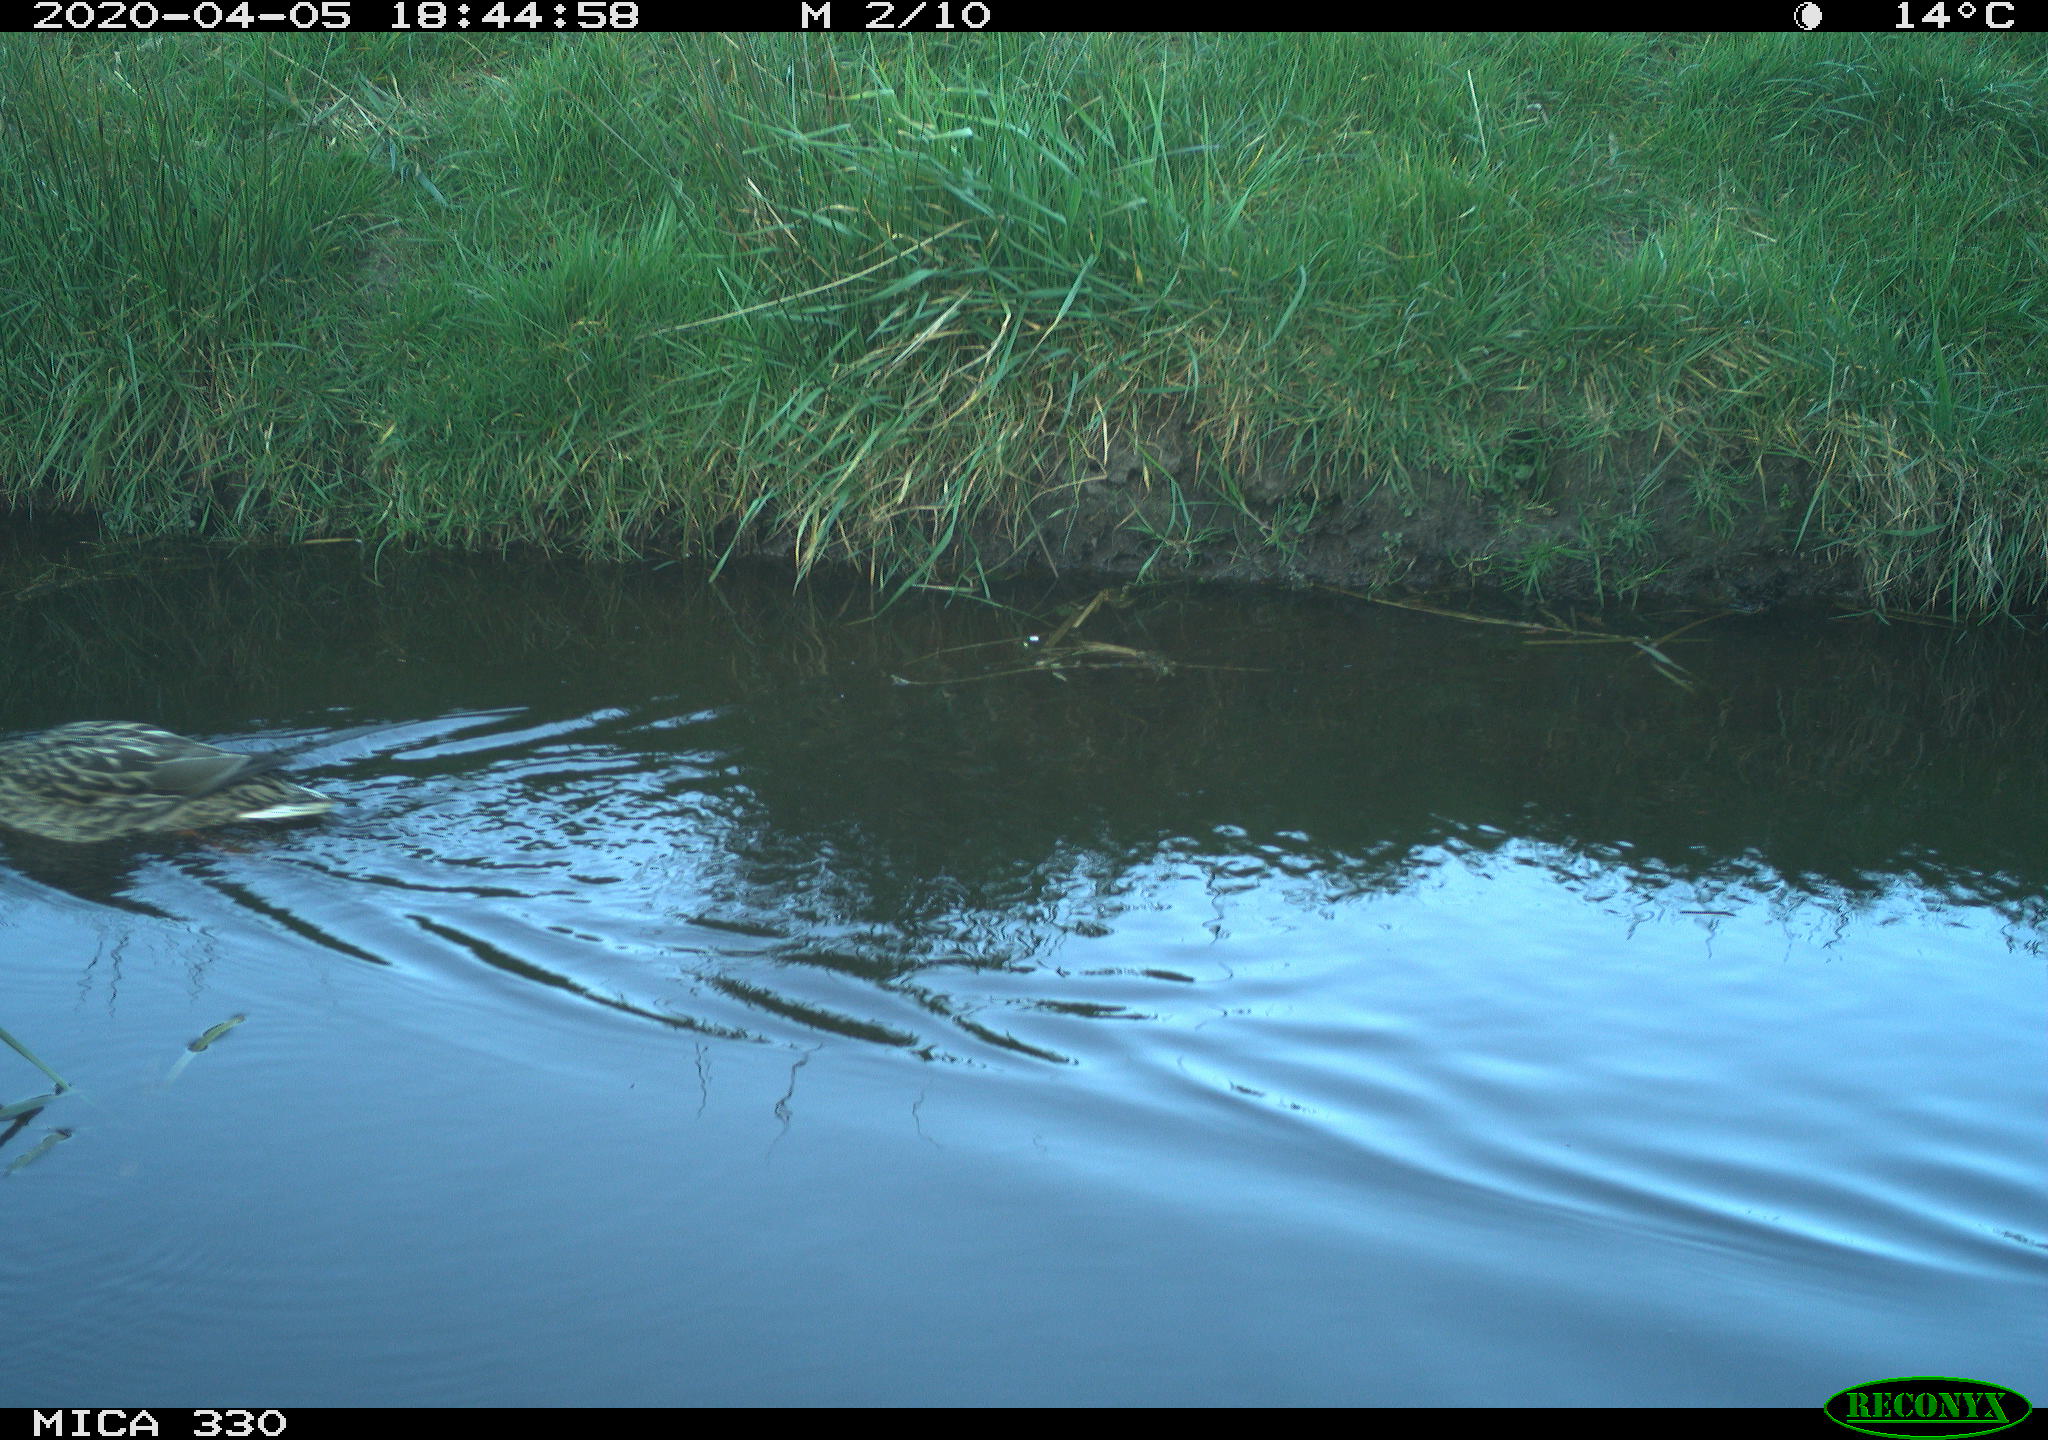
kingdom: Animalia
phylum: Chordata
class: Aves
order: Anseriformes
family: Anatidae
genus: Anas
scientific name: Anas platyrhynchos
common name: Mallard
